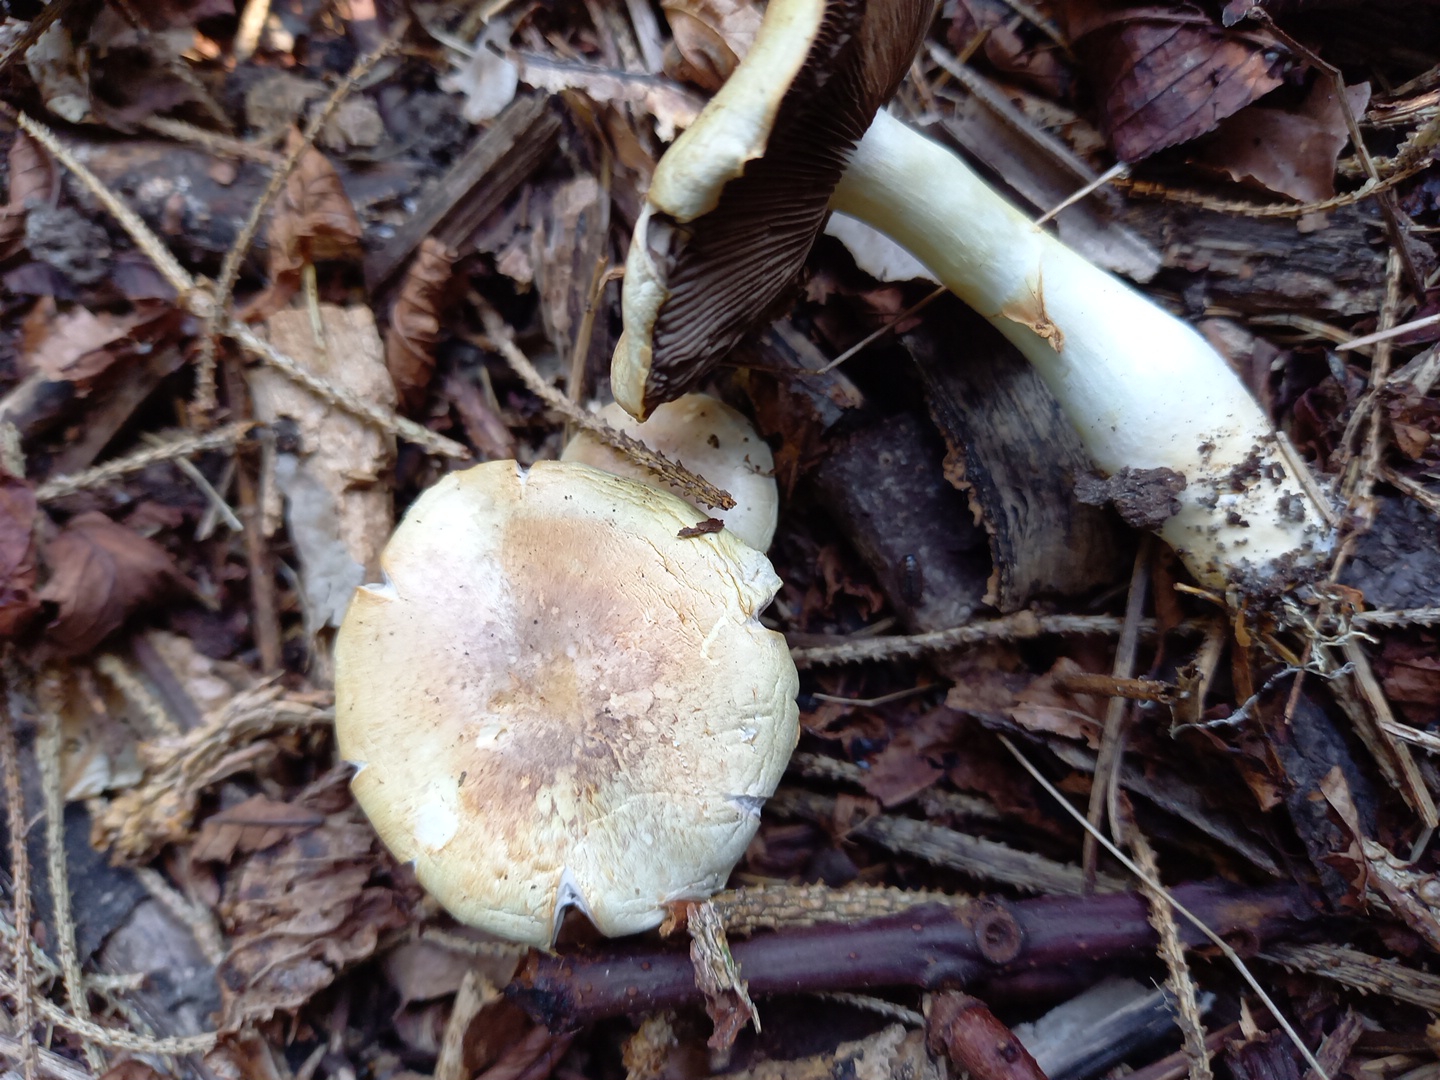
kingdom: Fungi
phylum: Basidiomycota
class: Agaricomycetes
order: Agaricales
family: Agaricaceae
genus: Agaricus
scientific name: Agaricus dulcidulus
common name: blegrød champignon
